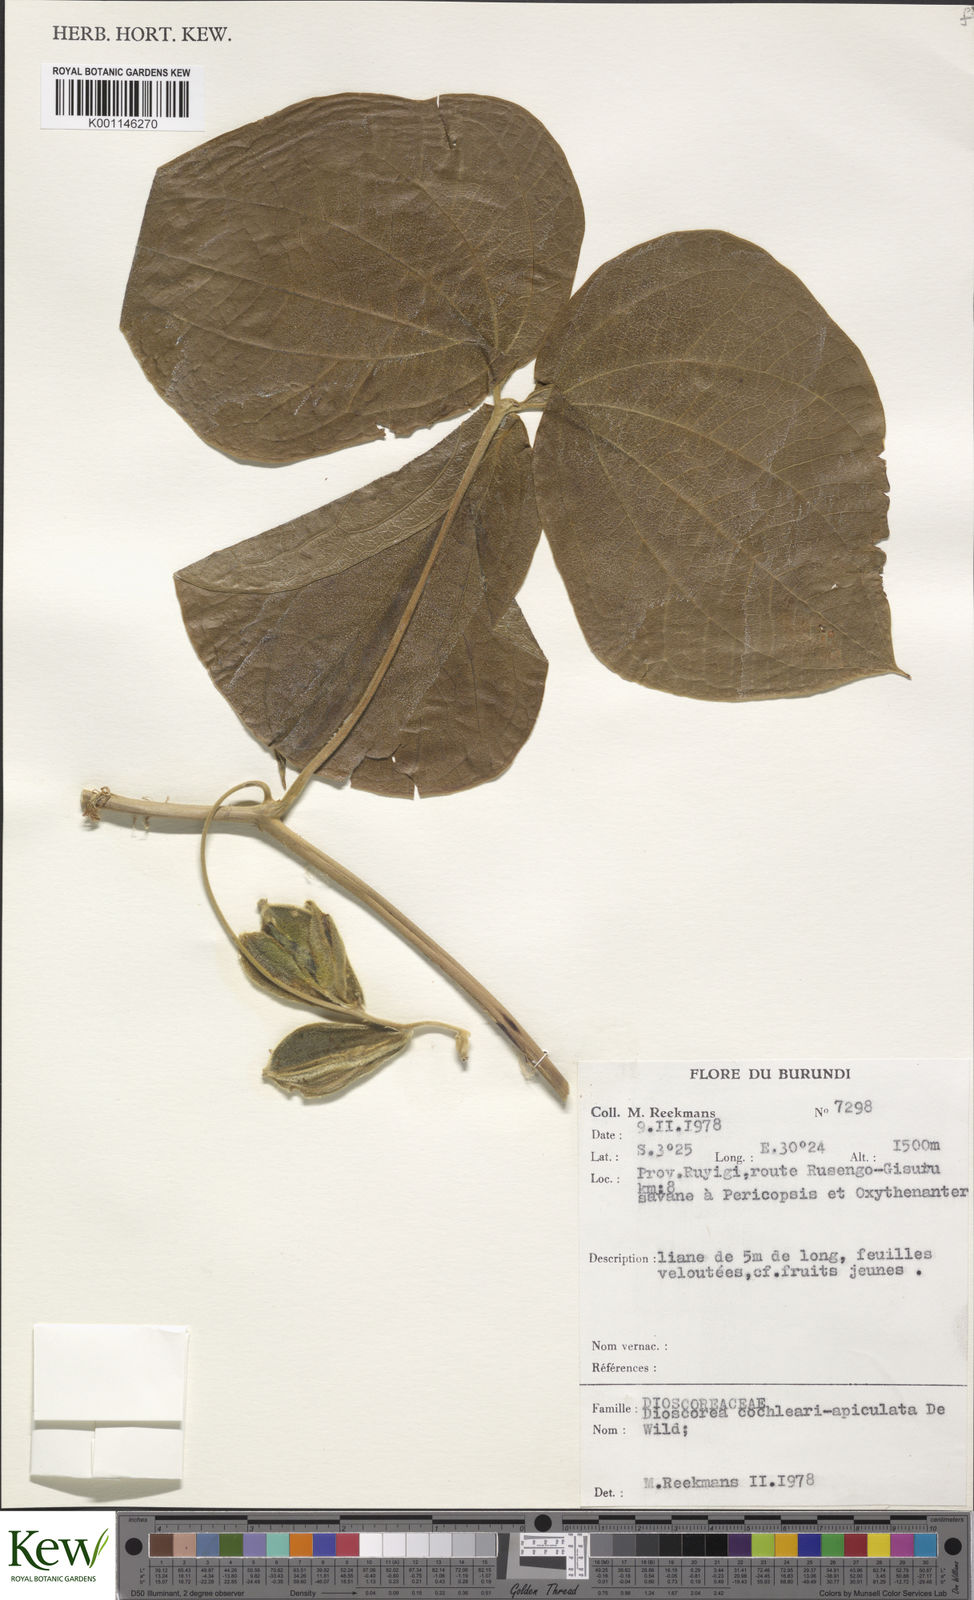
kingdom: Plantae
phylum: Tracheophyta
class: Liliopsida
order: Dioscoreales
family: Dioscoreaceae
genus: Dioscorea
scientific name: Dioscorea cochleariapiculata
